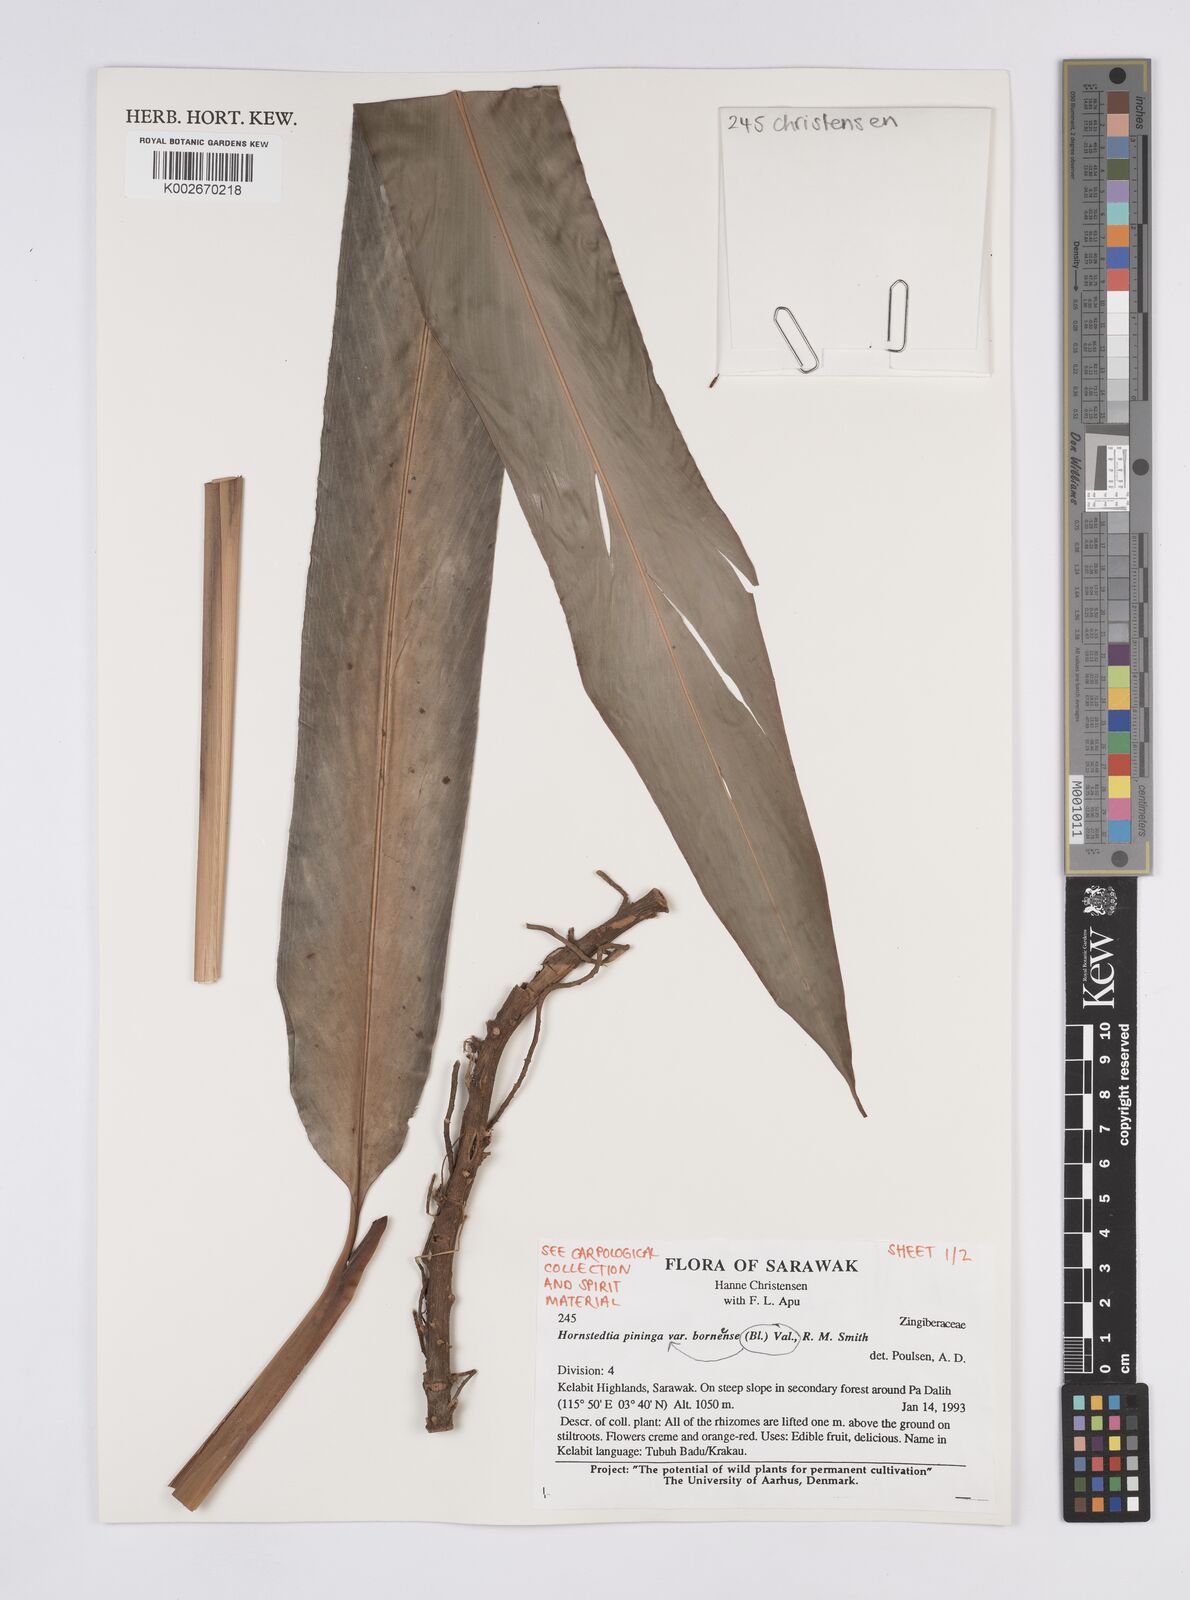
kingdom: Plantae
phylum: Tracheophyta
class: Liliopsida
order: Zingiberales
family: Zingiberaceae
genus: Hornstedtia
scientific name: Hornstedtia pininga
